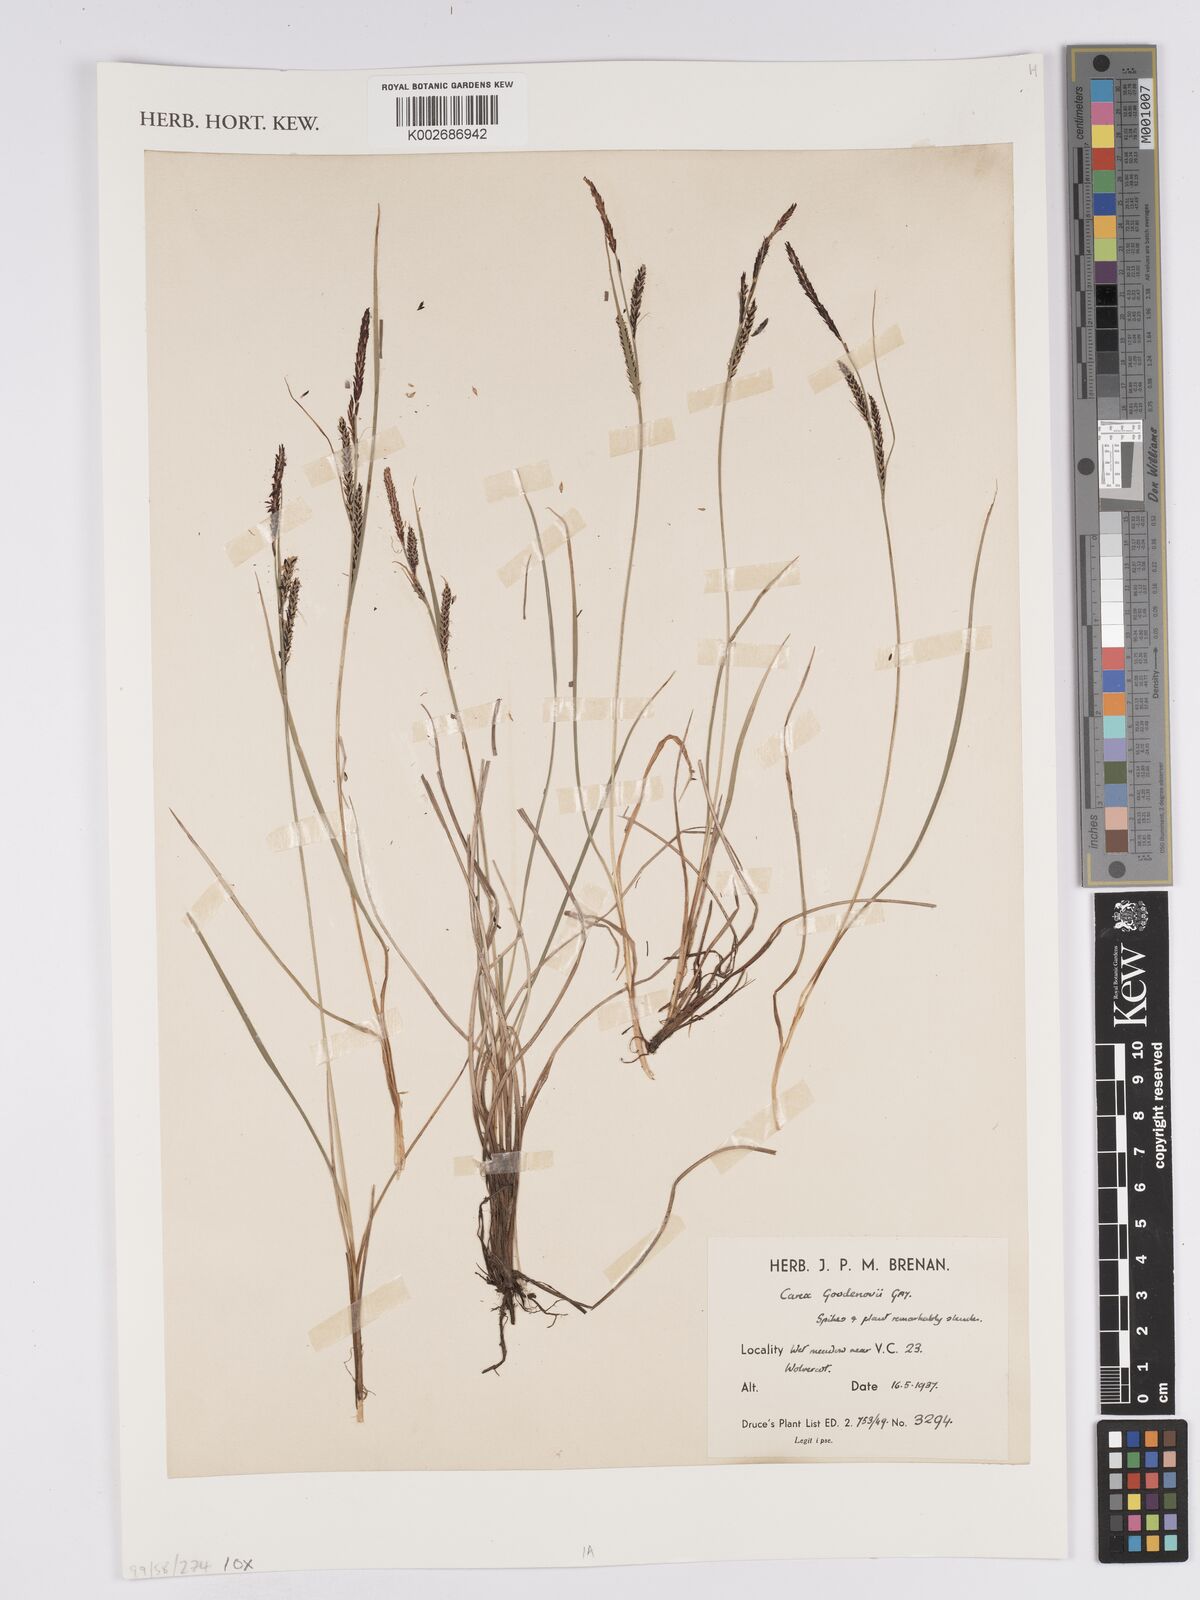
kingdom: Plantae
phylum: Tracheophyta
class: Liliopsida
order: Poales
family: Cyperaceae
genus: Carex
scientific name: Carex nigra
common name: Common sedge
